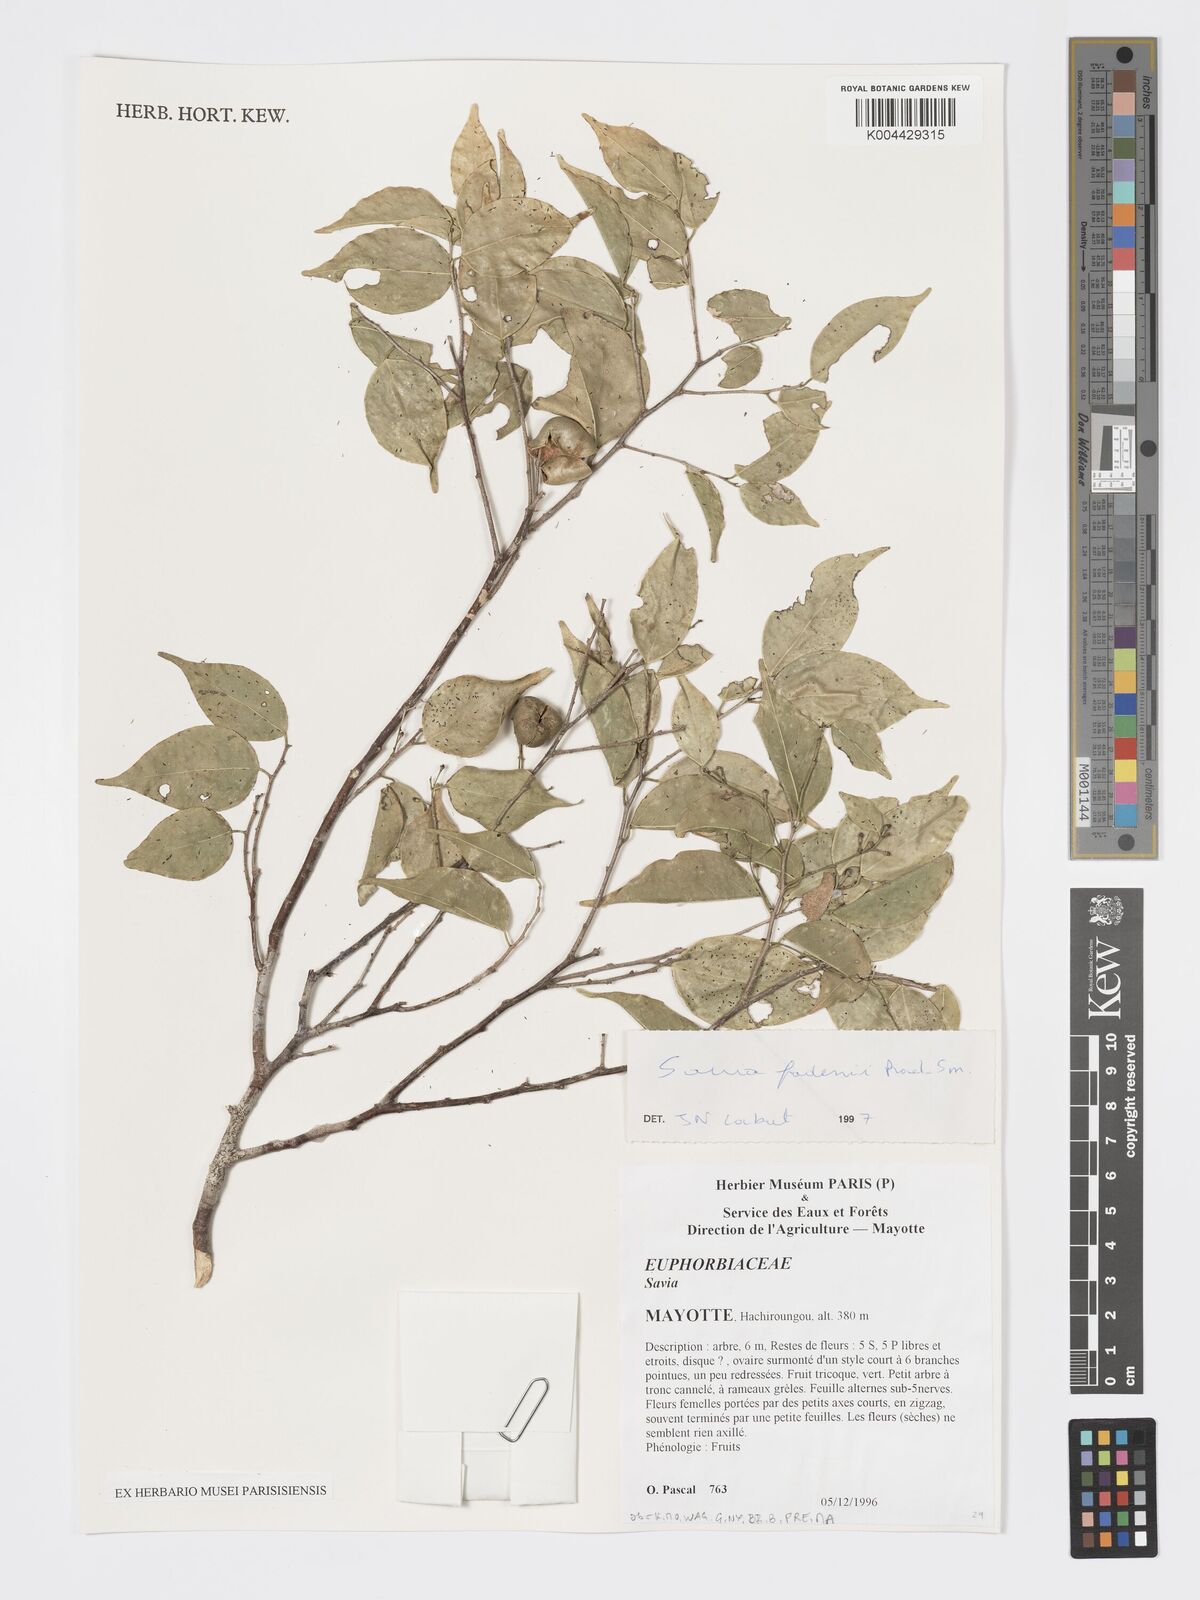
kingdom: Plantae
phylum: Tracheophyta
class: Magnoliopsida
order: Malpighiales
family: Phyllanthaceae
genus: Wielandia
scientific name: Wielandia fadenii
